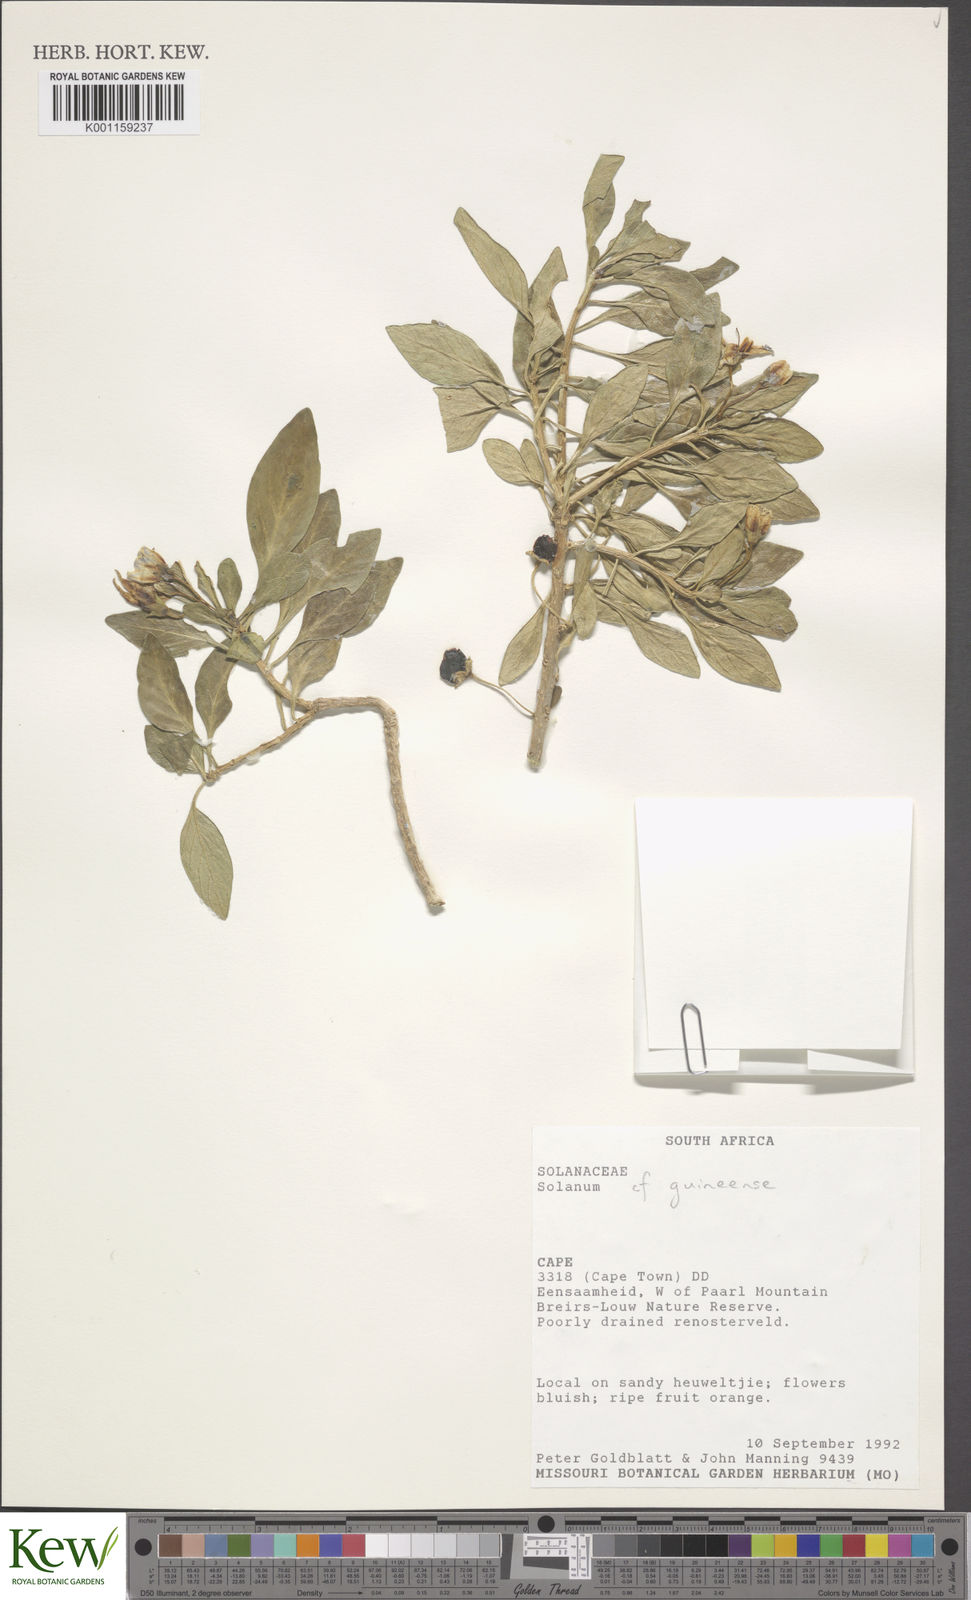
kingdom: Plantae
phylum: Tracheophyta
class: Magnoliopsida
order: Solanales
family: Solanaceae
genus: Solanum
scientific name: Solanum guineense
